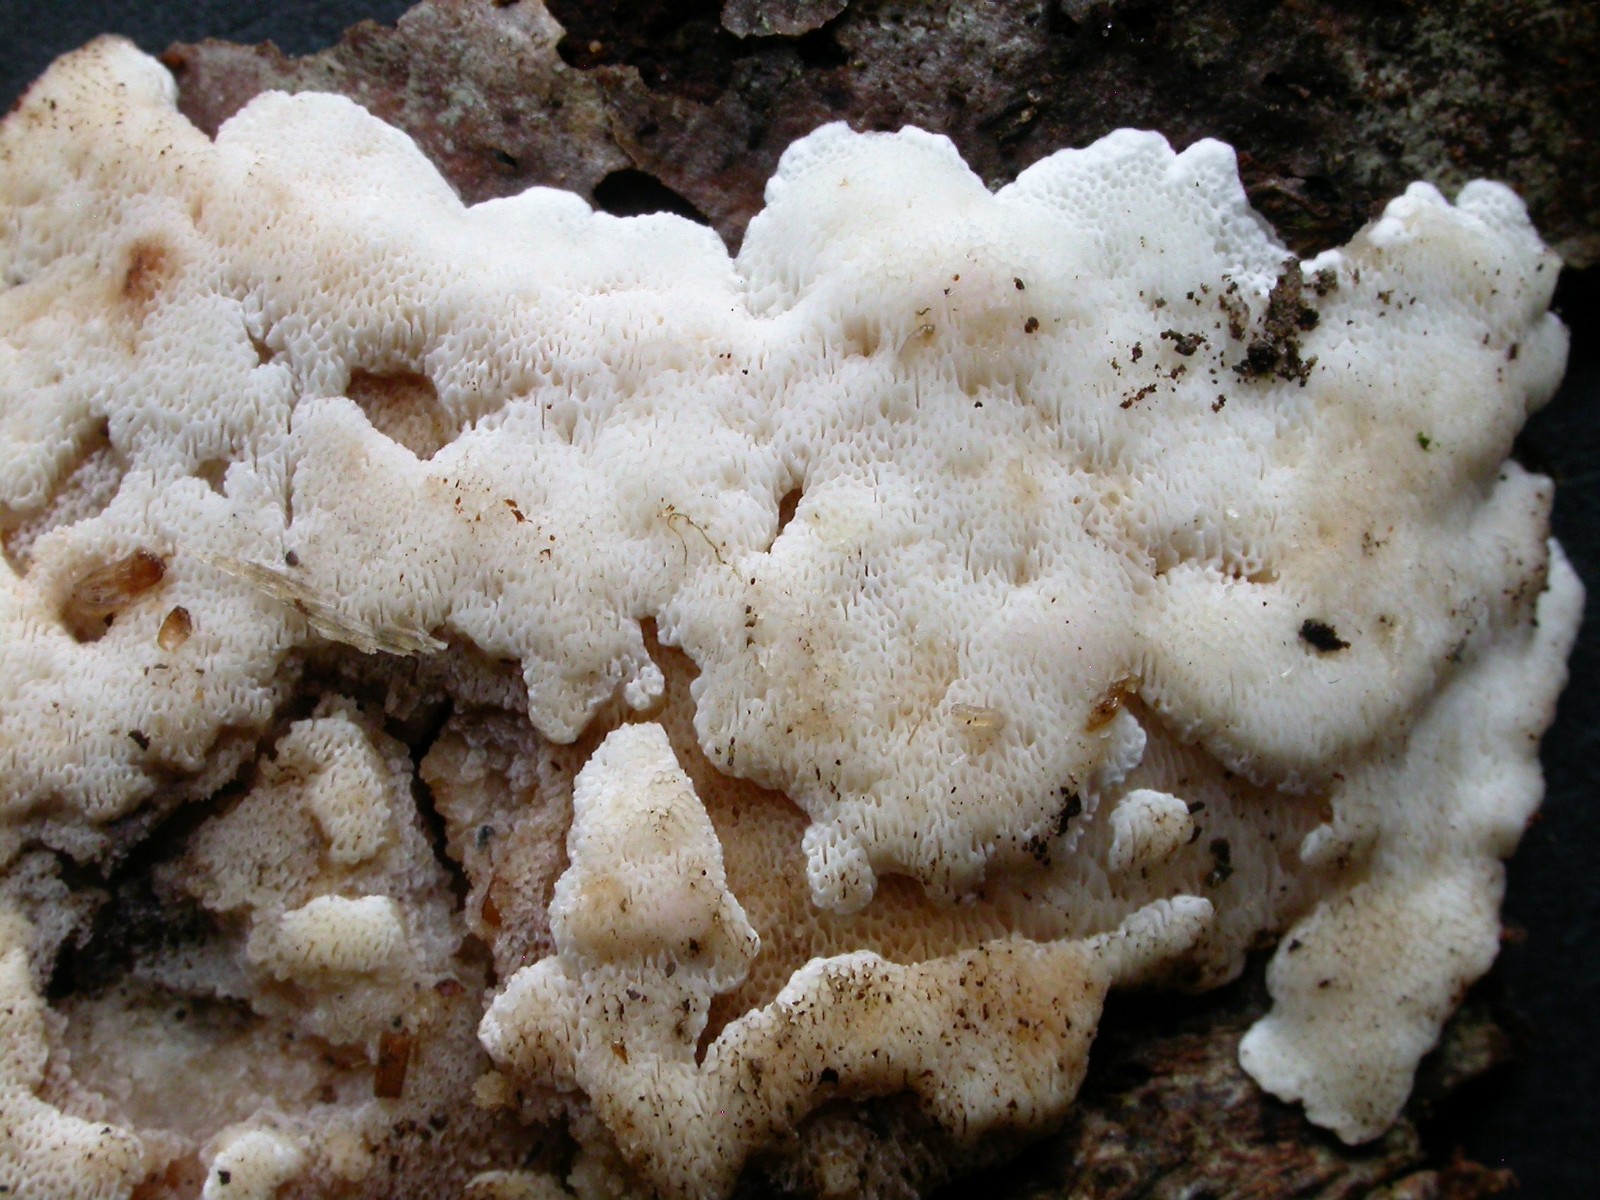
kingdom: Fungi
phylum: Basidiomycota
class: Agaricomycetes
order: Polyporales
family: Meruliaceae
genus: Physisporinus
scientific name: Physisporinus vitreus
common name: mastesvamp
